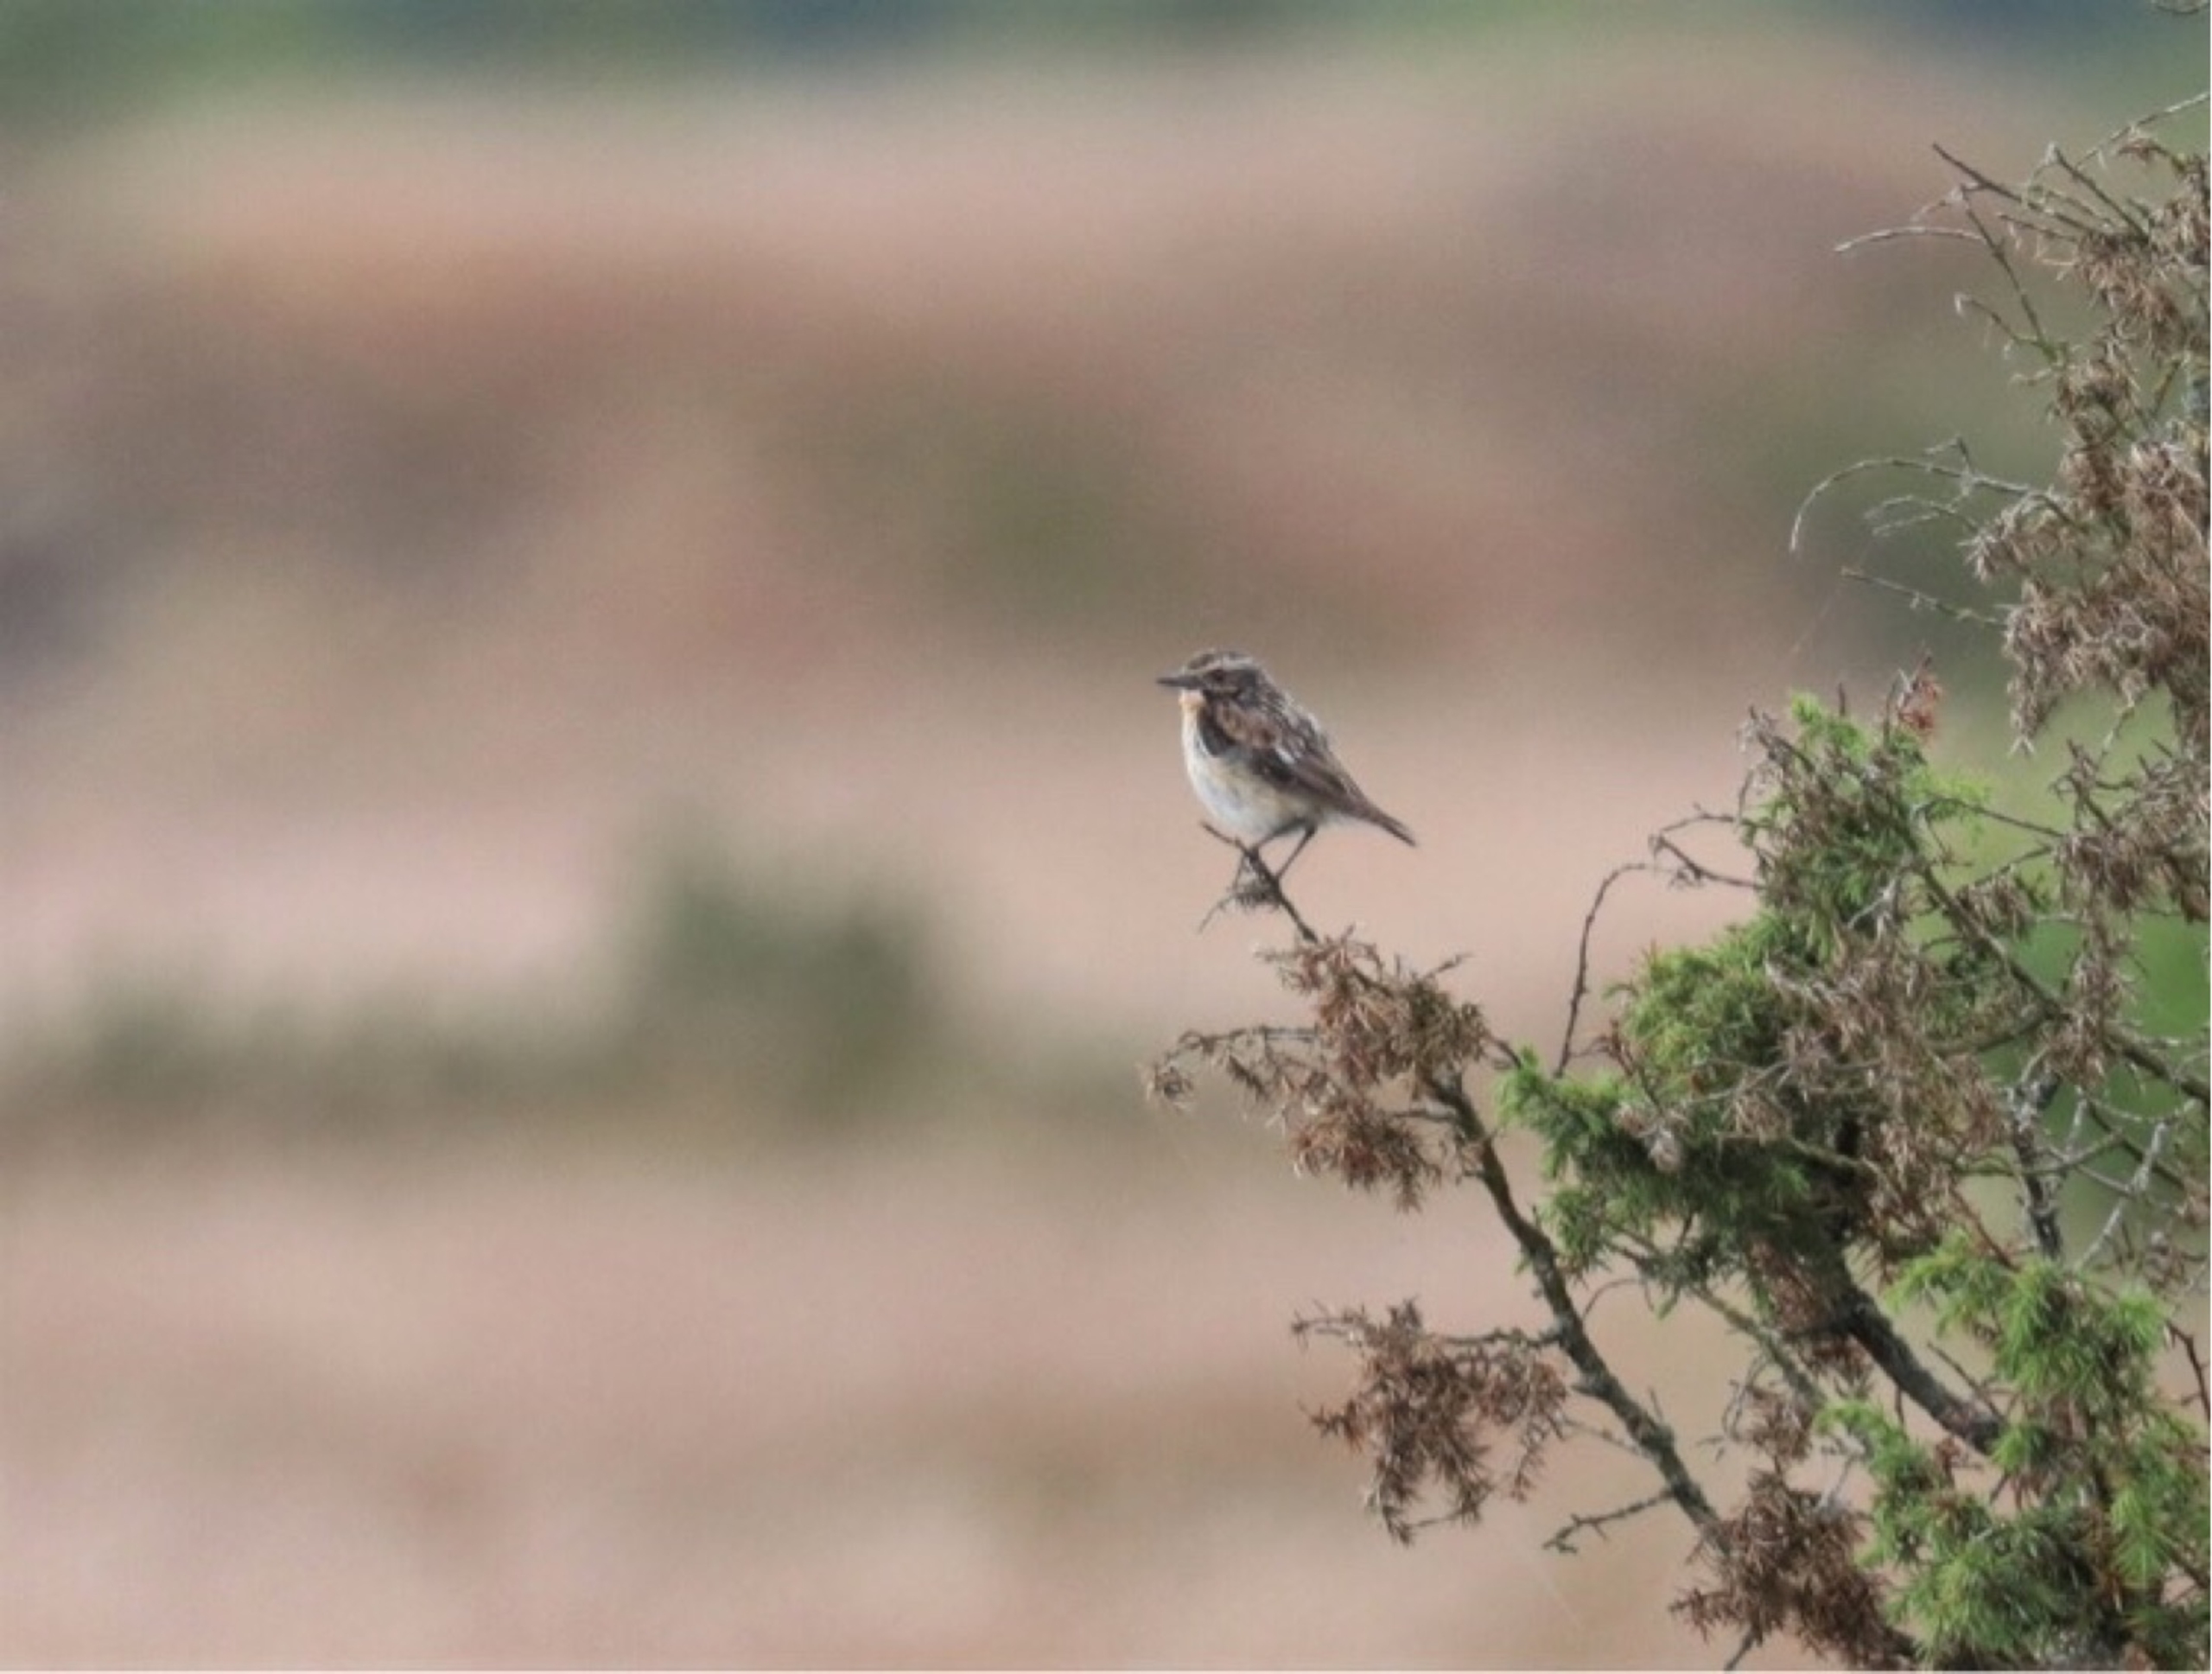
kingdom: Animalia
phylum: Chordata
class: Aves
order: Passeriformes
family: Muscicapidae
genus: Saxicola
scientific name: Saxicola rubetra
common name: Bynkefugl
